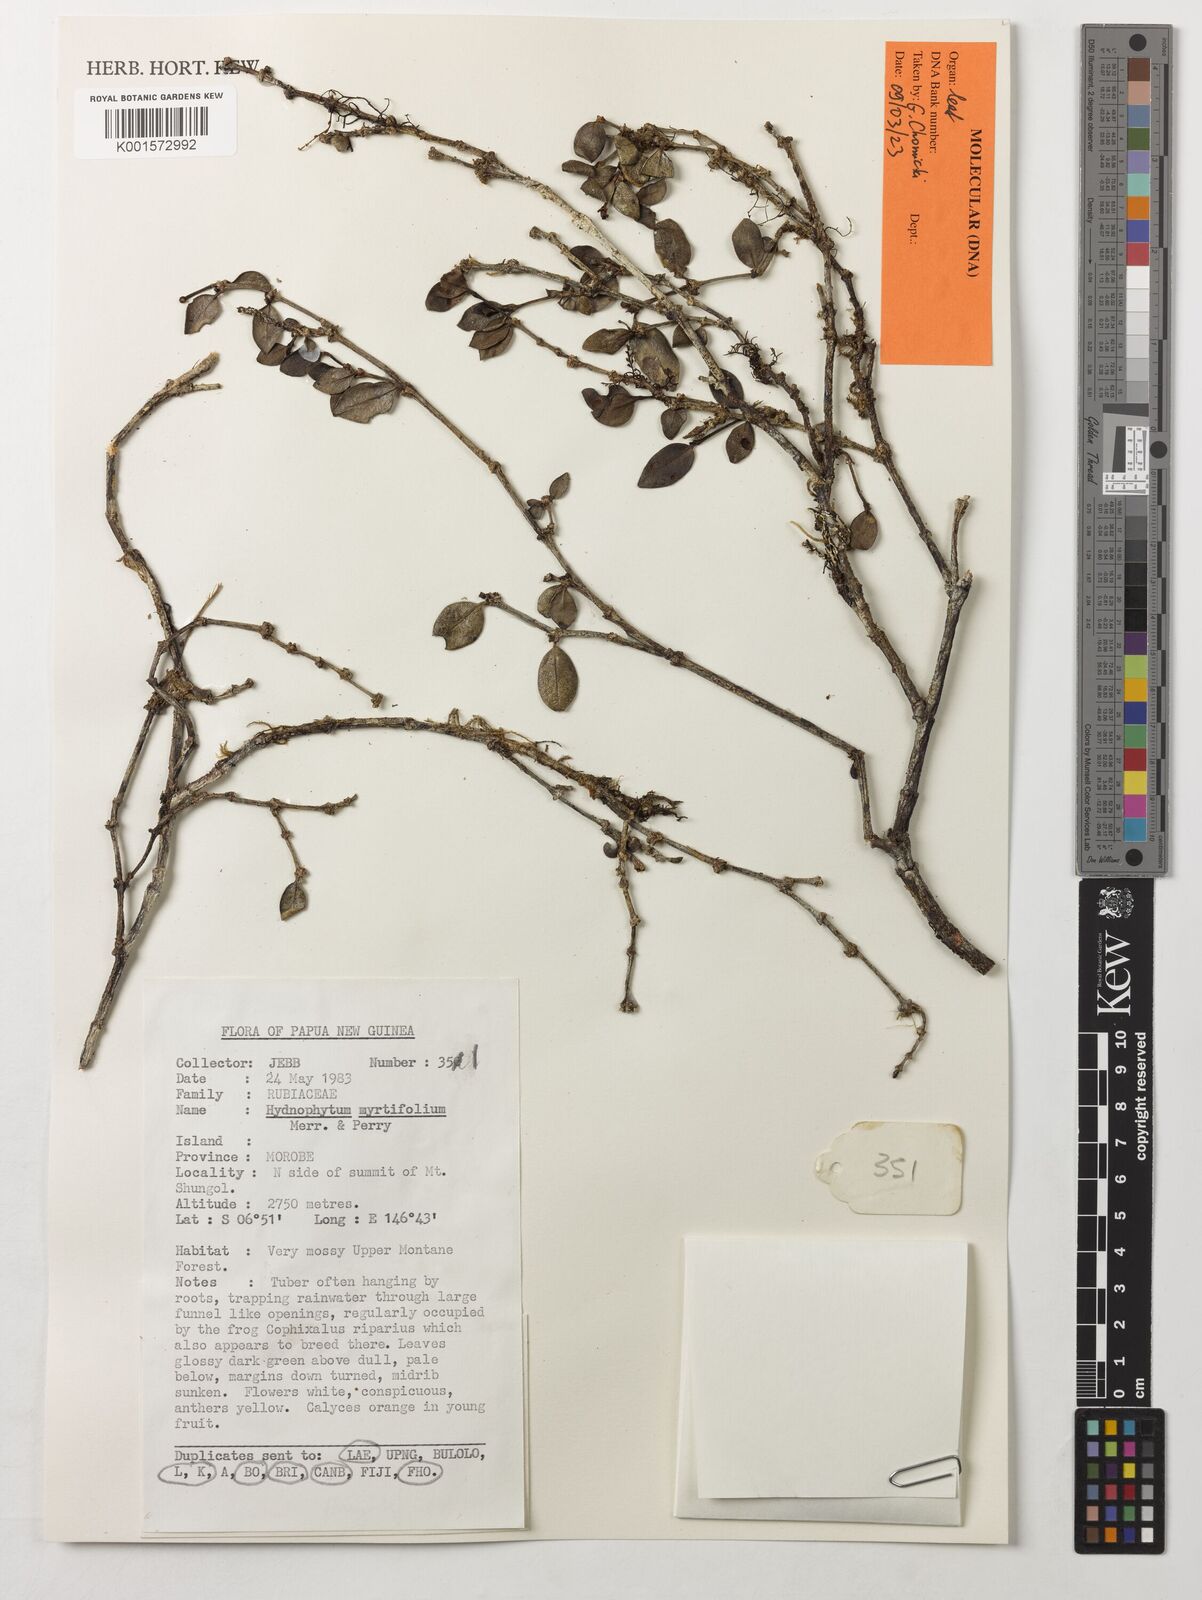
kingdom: Plantae
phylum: Tracheophyta
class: Magnoliopsida
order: Gentianales
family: Rubiaceae
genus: Hydnophytum
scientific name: Hydnophytum myrtifolium
